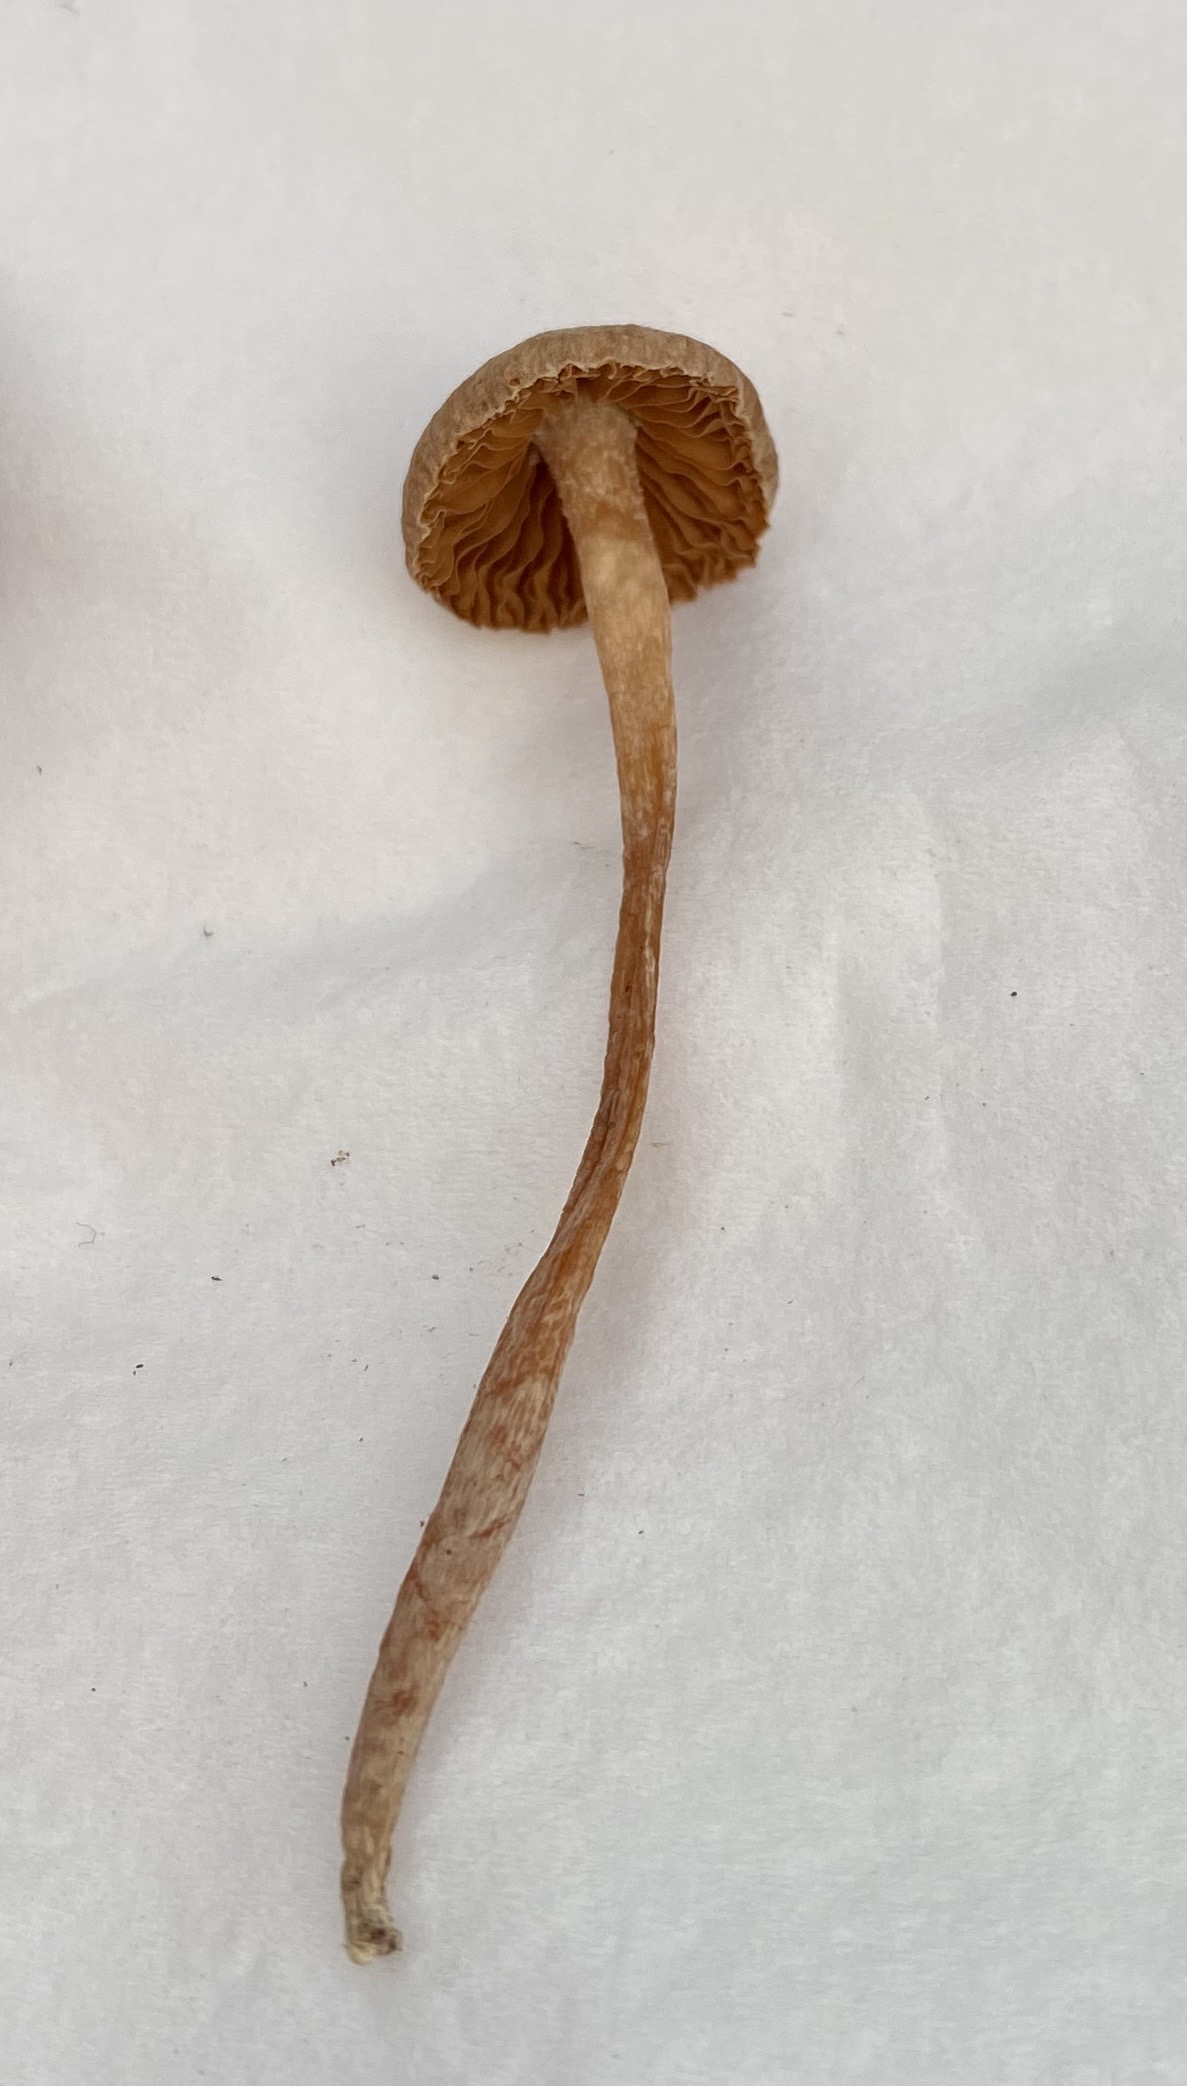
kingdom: Fungi
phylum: Basidiomycota
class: Agaricomycetes
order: Agaricales
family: Cortinariaceae
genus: Cortinarius
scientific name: Cortinarius
